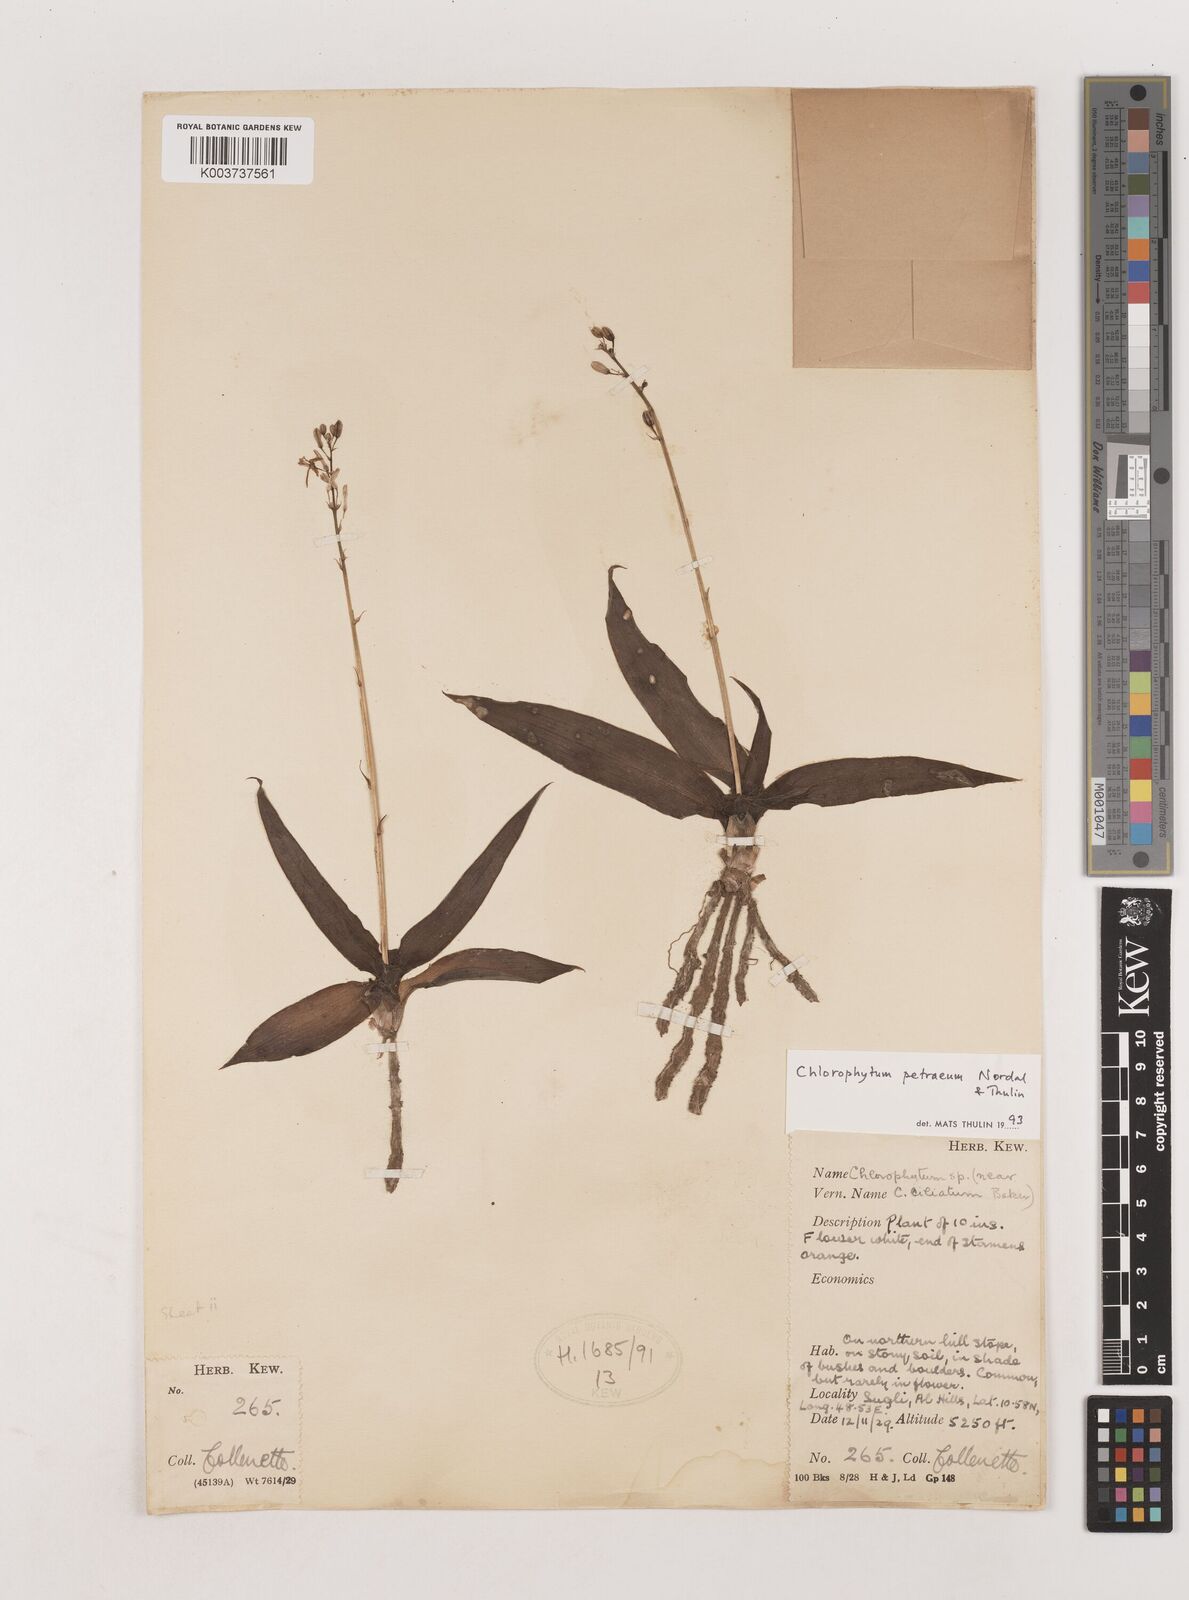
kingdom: Plantae
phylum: Tracheophyta
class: Liliopsida
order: Asparagales
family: Asparagaceae
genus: Chlorophytum
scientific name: Chlorophytum petraeum
